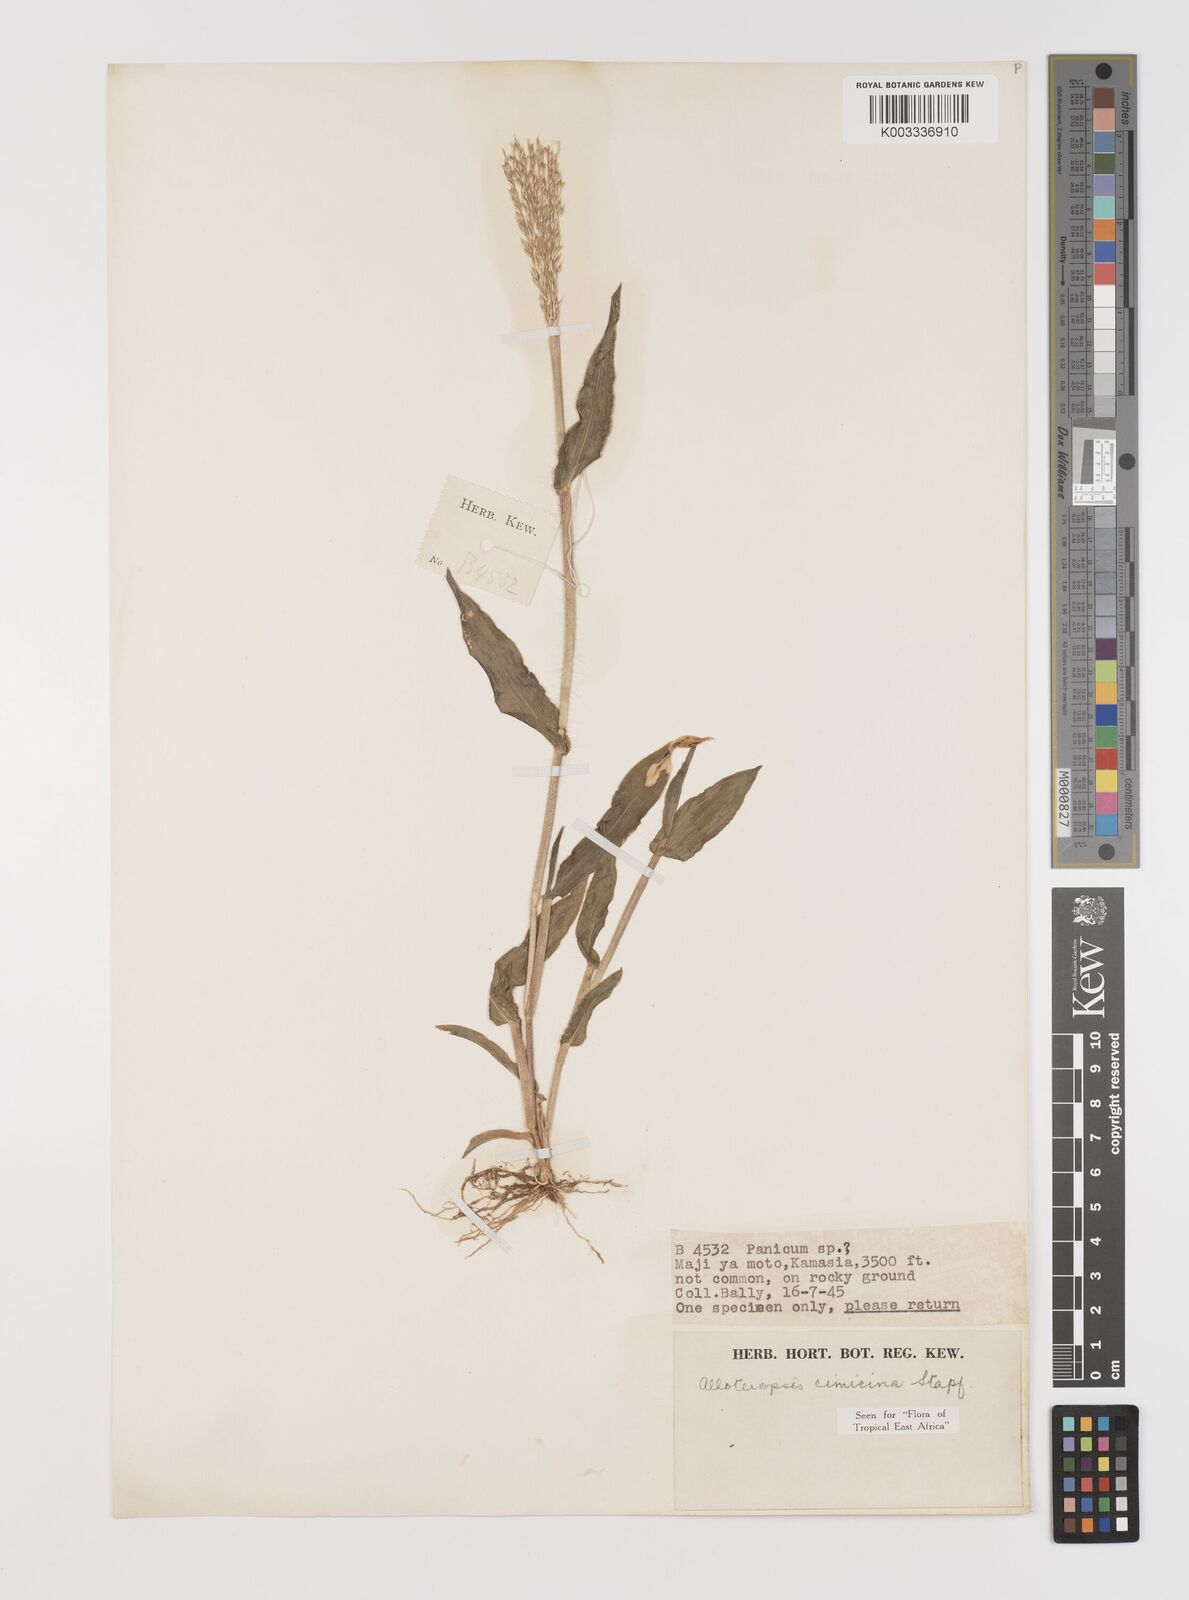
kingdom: Plantae
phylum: Tracheophyta
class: Liliopsida
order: Poales
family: Poaceae
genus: Alloteropsis
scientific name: Alloteropsis cimicina
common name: Summergrass
